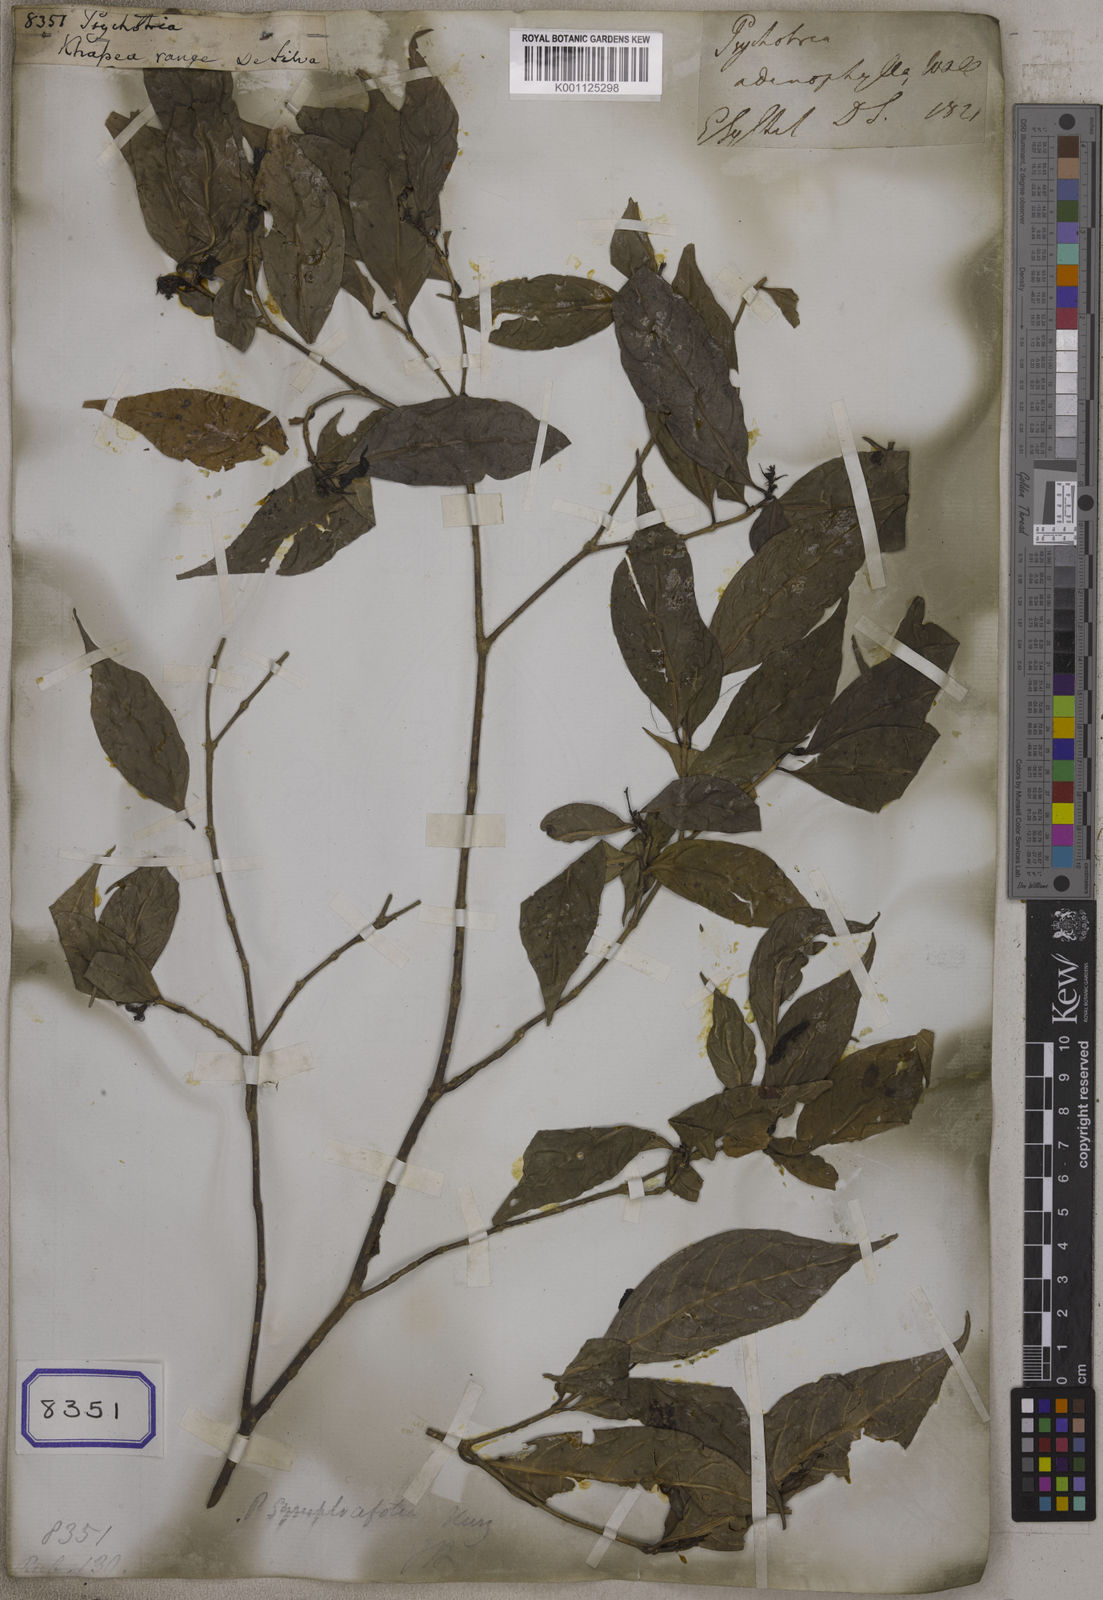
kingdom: Plantae
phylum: Tracheophyta
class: Magnoliopsida
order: Gentianales
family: Rubiaceae
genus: Psychotria
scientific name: Psychotria
